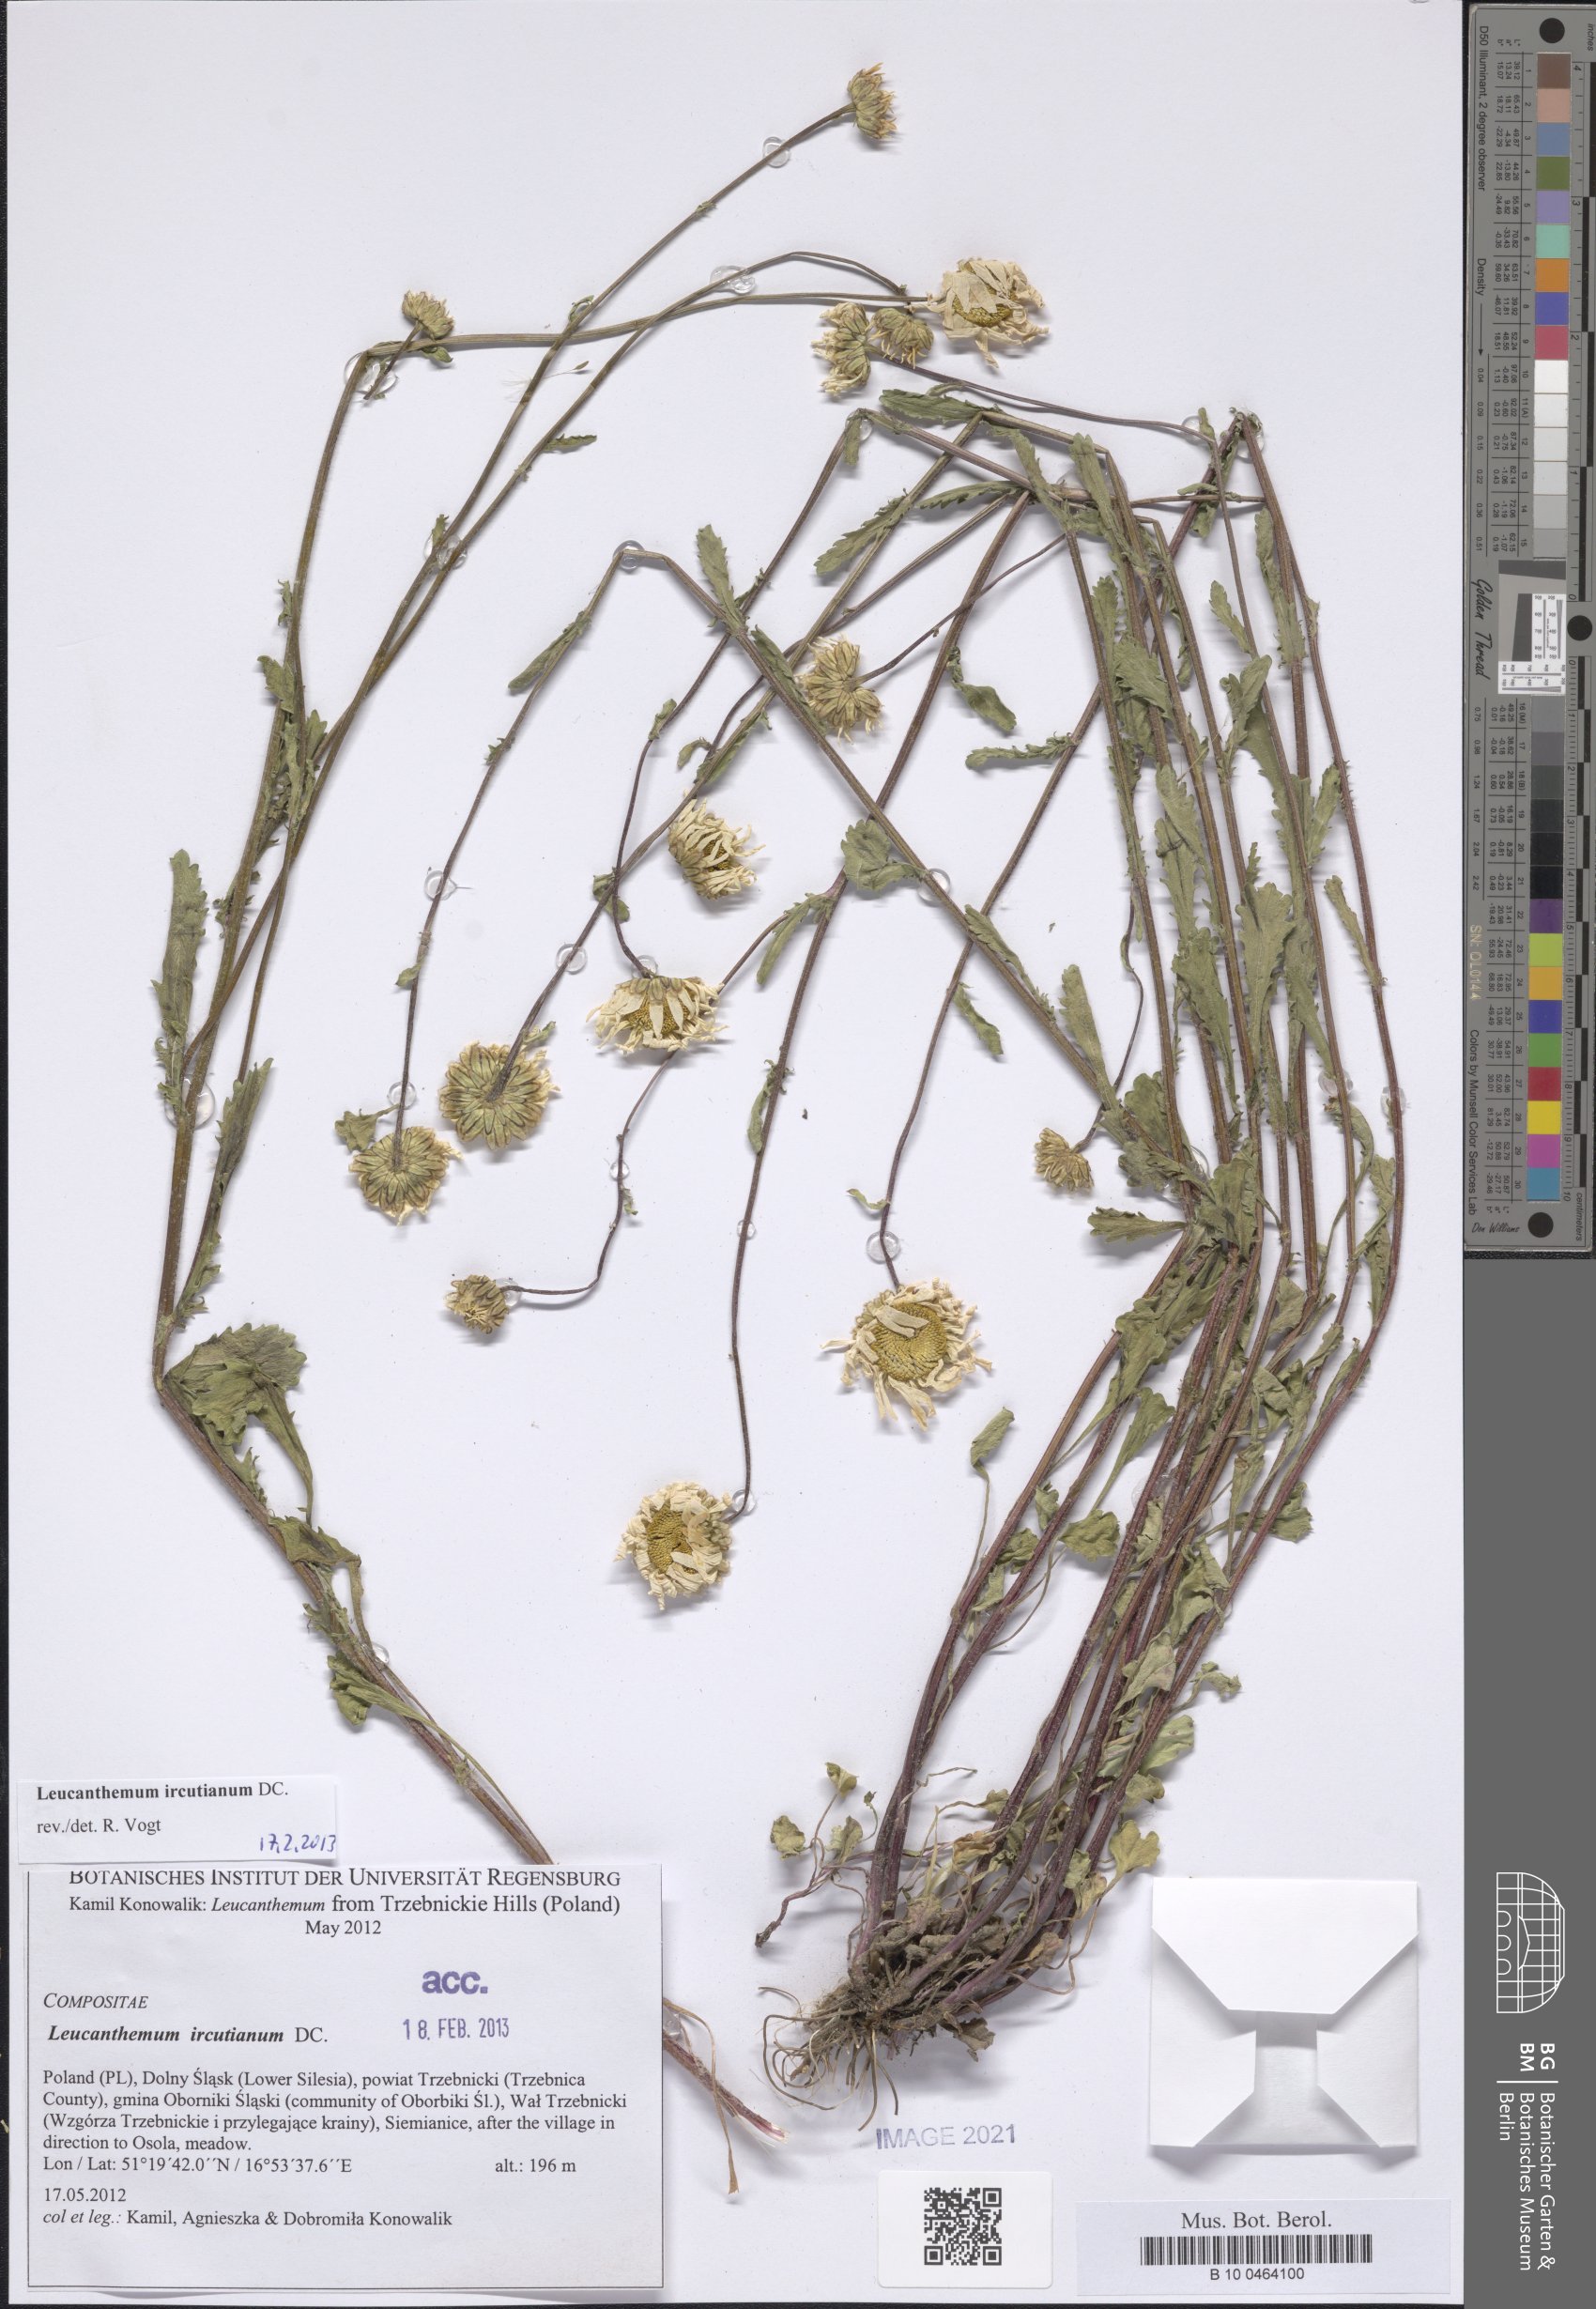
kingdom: Plantae
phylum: Tracheophyta
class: Magnoliopsida
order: Asterales
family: Asteraceae
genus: Leucanthemum
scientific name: Leucanthemum vulgare
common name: Oxeye daisy
